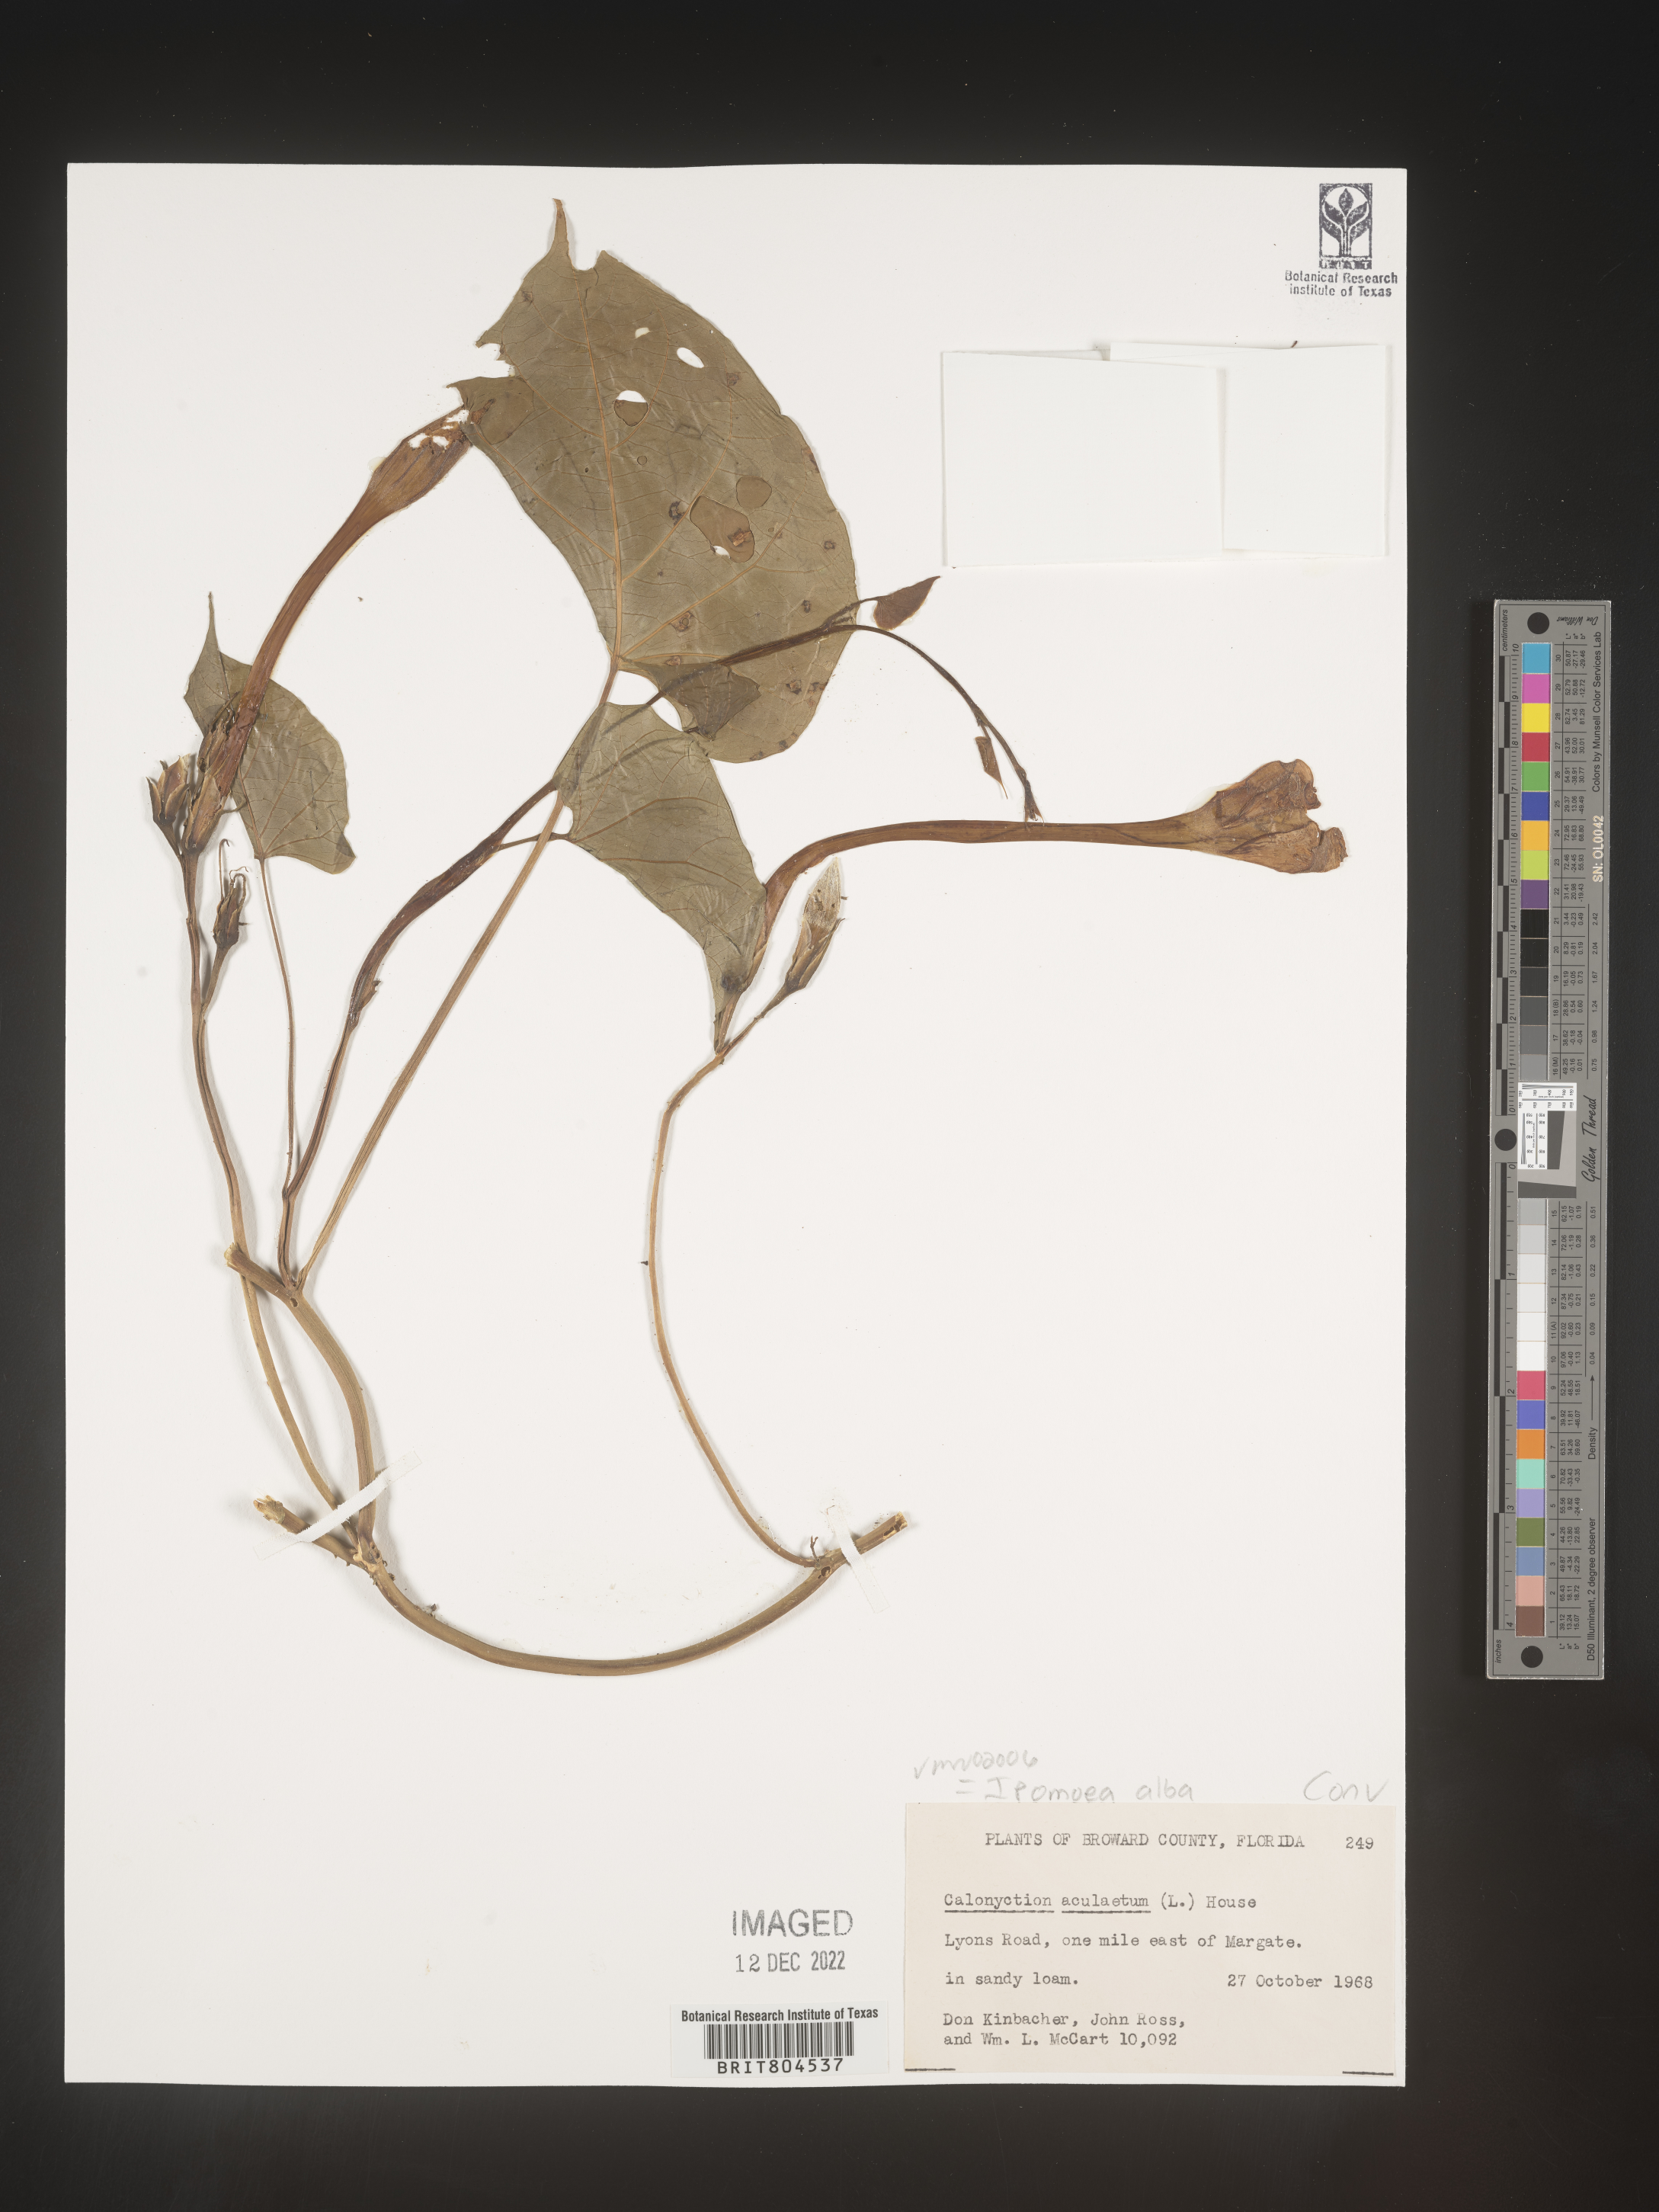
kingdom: Plantae
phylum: Tracheophyta
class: Magnoliopsida
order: Solanales
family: Convolvulaceae
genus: Ipomoea
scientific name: Ipomoea alba
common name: Moonflower
